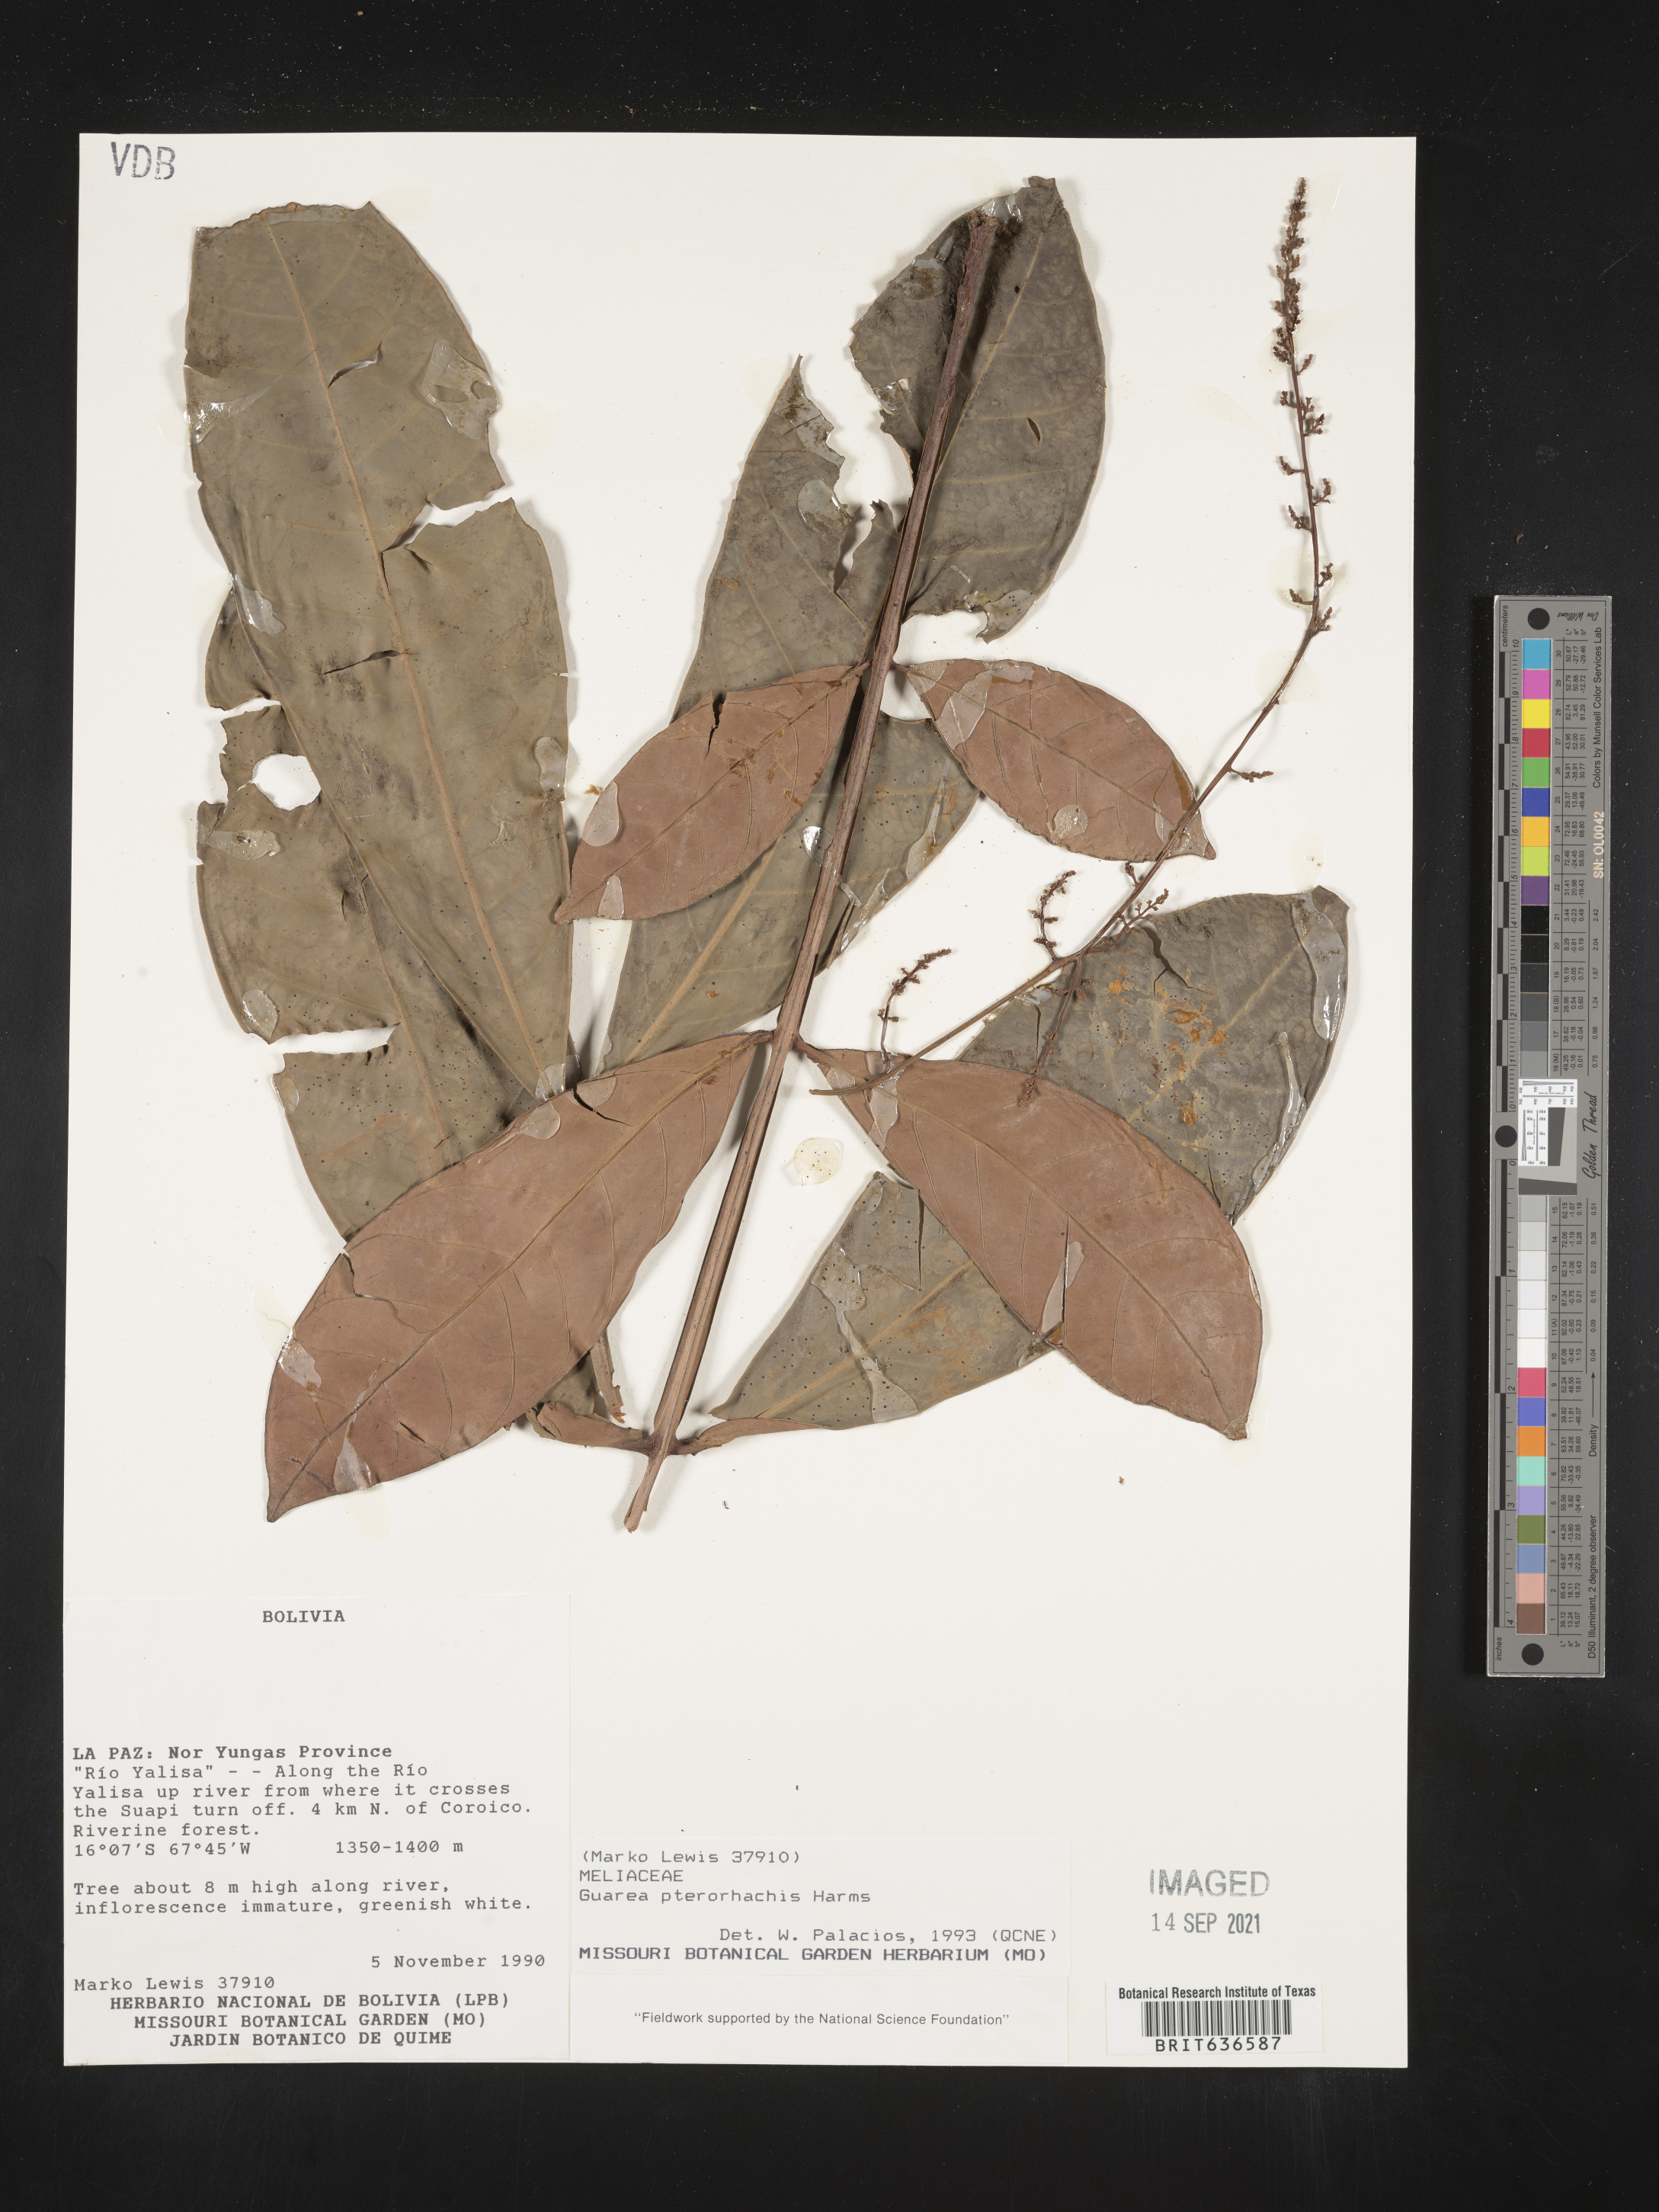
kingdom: Plantae
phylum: Tracheophyta
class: Magnoliopsida
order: Sapindales
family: Meliaceae
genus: Guarea
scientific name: Guarea
